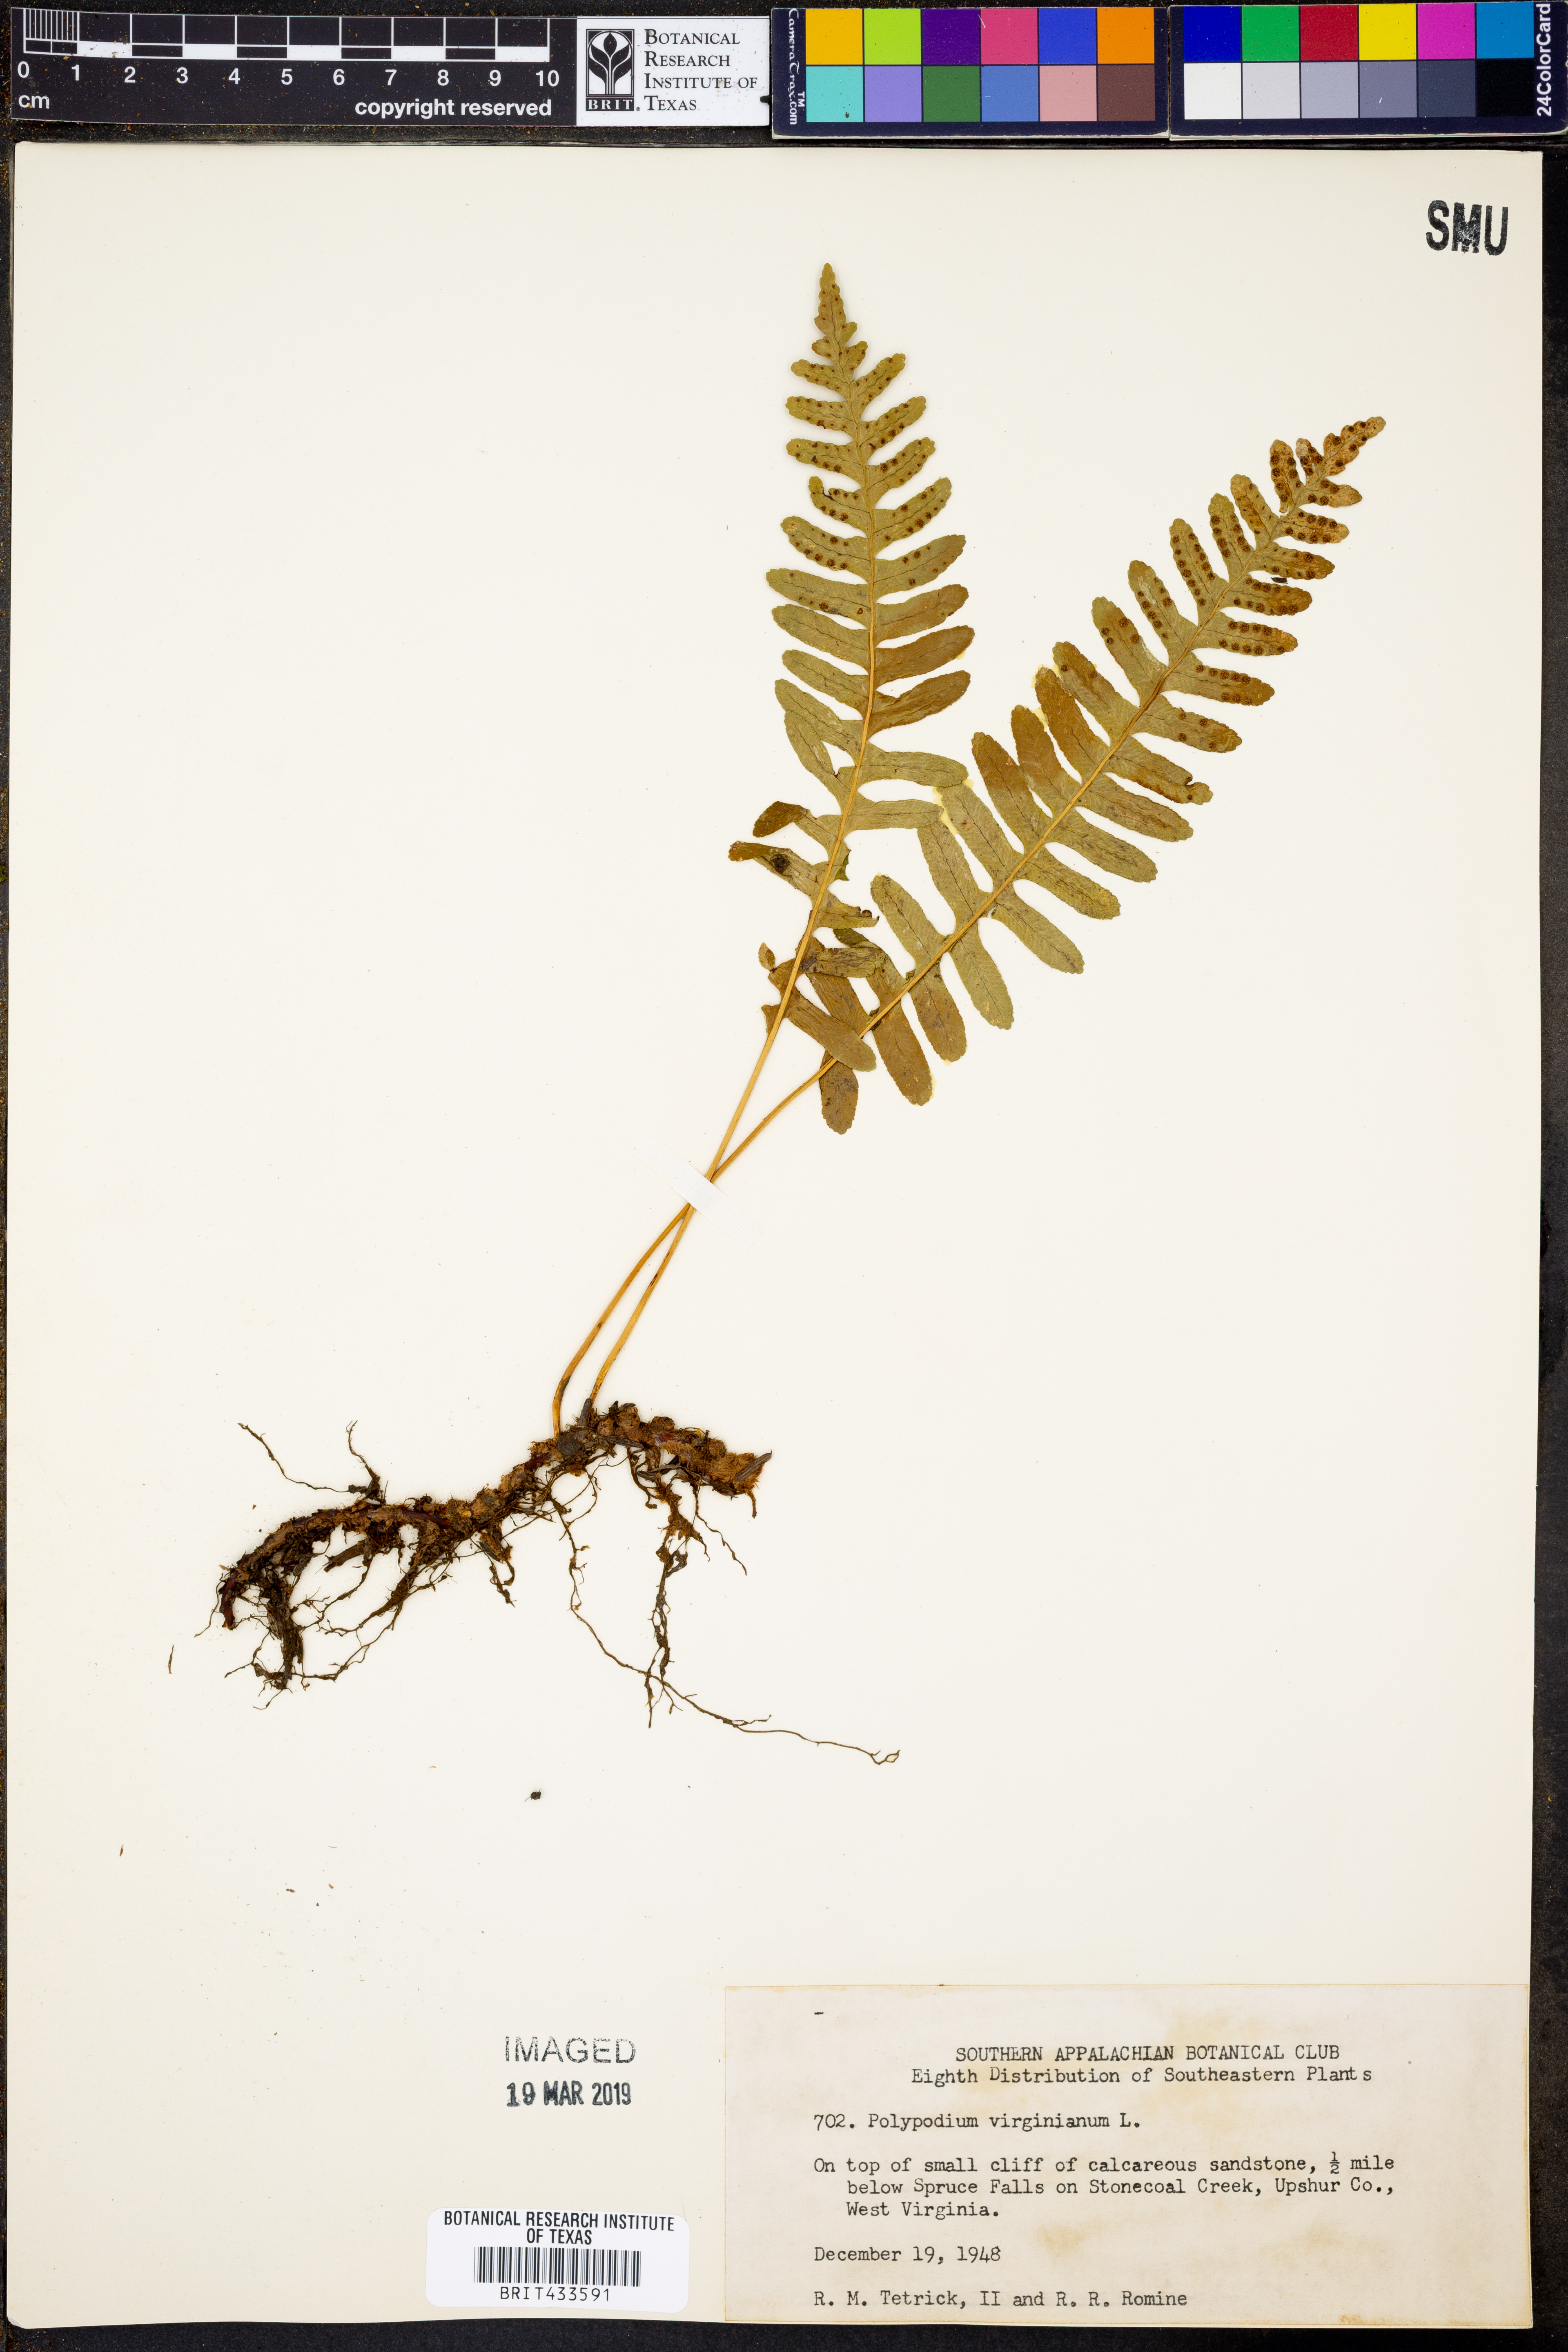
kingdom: Plantae
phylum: Tracheophyta
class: Polypodiopsida
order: Polypodiales
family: Polypodiaceae
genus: Polypodium
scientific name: Polypodium virginianum
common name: American wall fern
